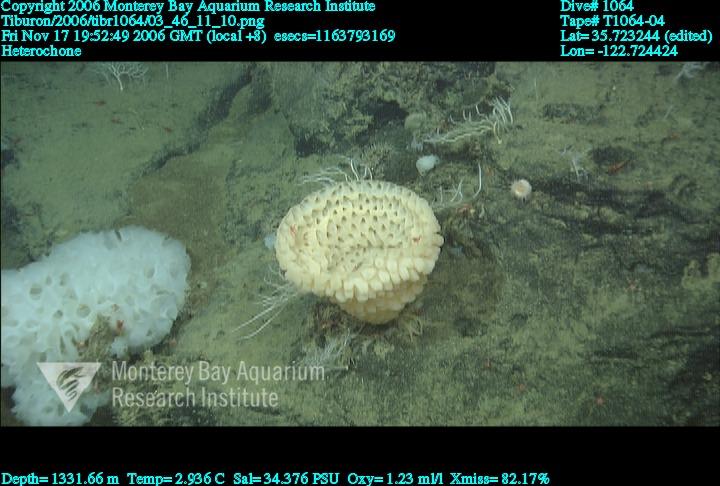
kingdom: Animalia
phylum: Porifera
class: Hexactinellida
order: Sceptrulophora
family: Aphrocallistidae
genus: Heterochone
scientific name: Heterochone
